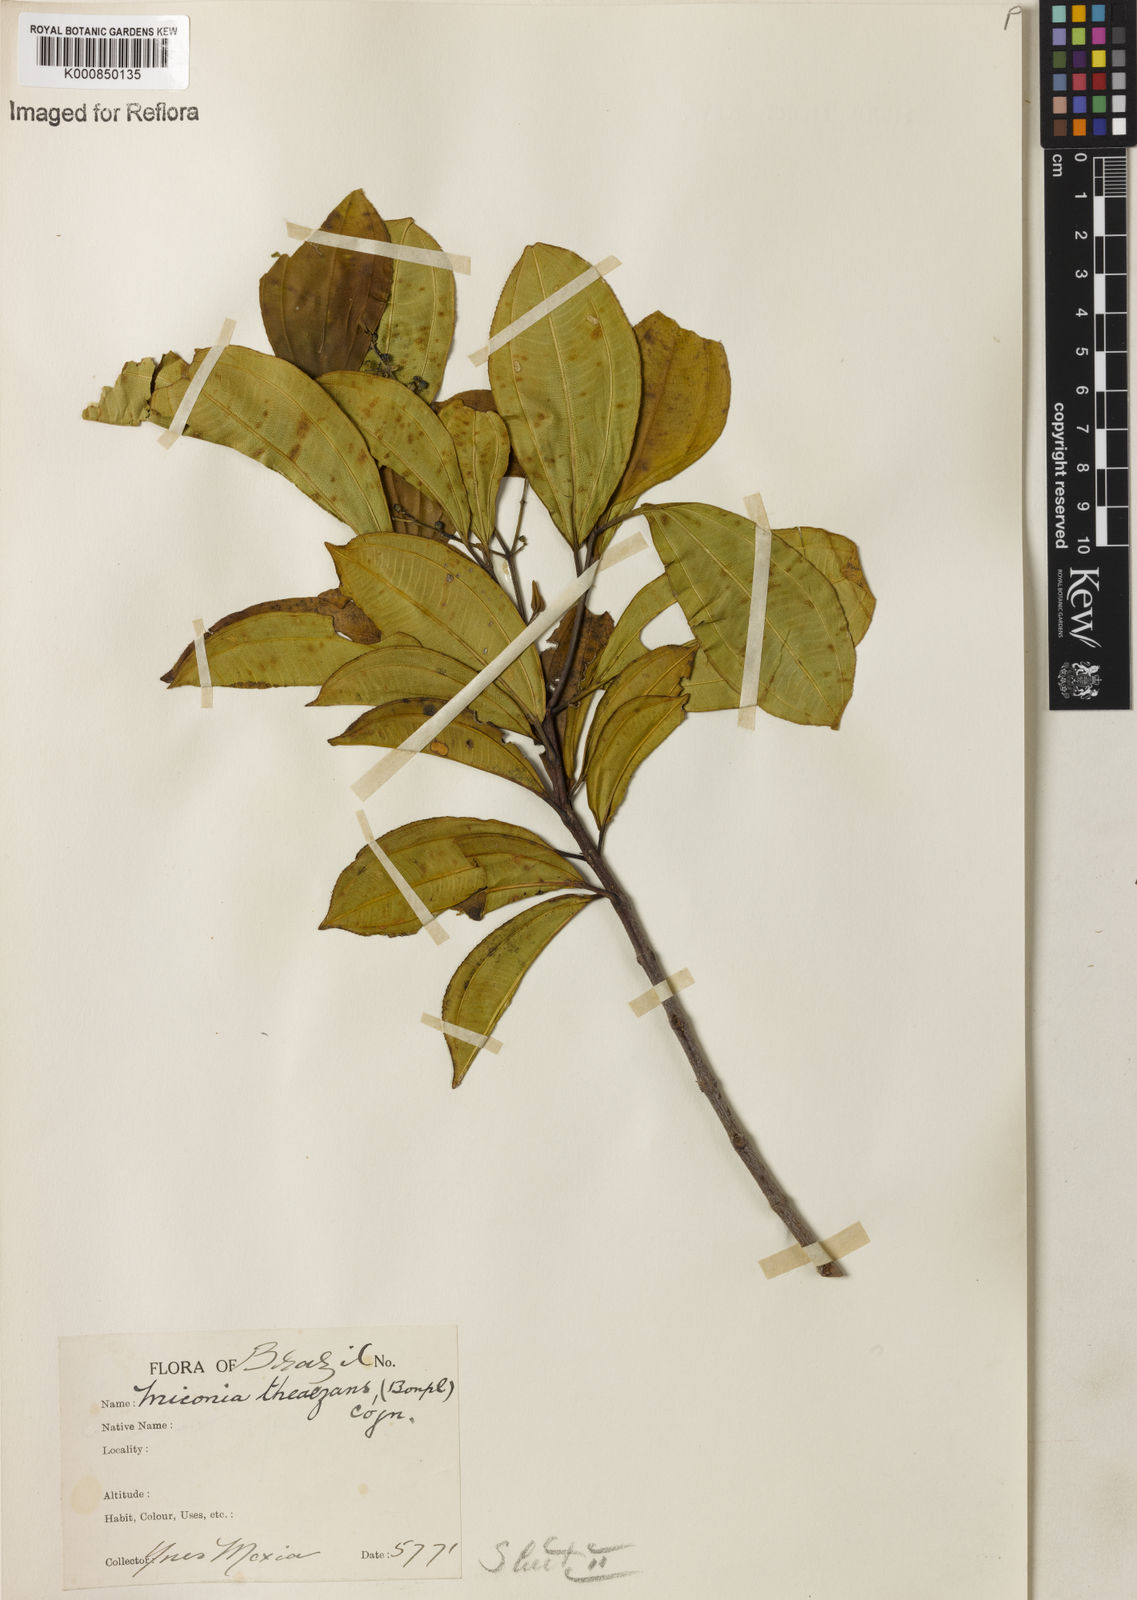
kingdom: Plantae
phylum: Tracheophyta
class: Magnoliopsida
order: Myrtales
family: Melastomataceae
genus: Miconia
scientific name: Miconia
